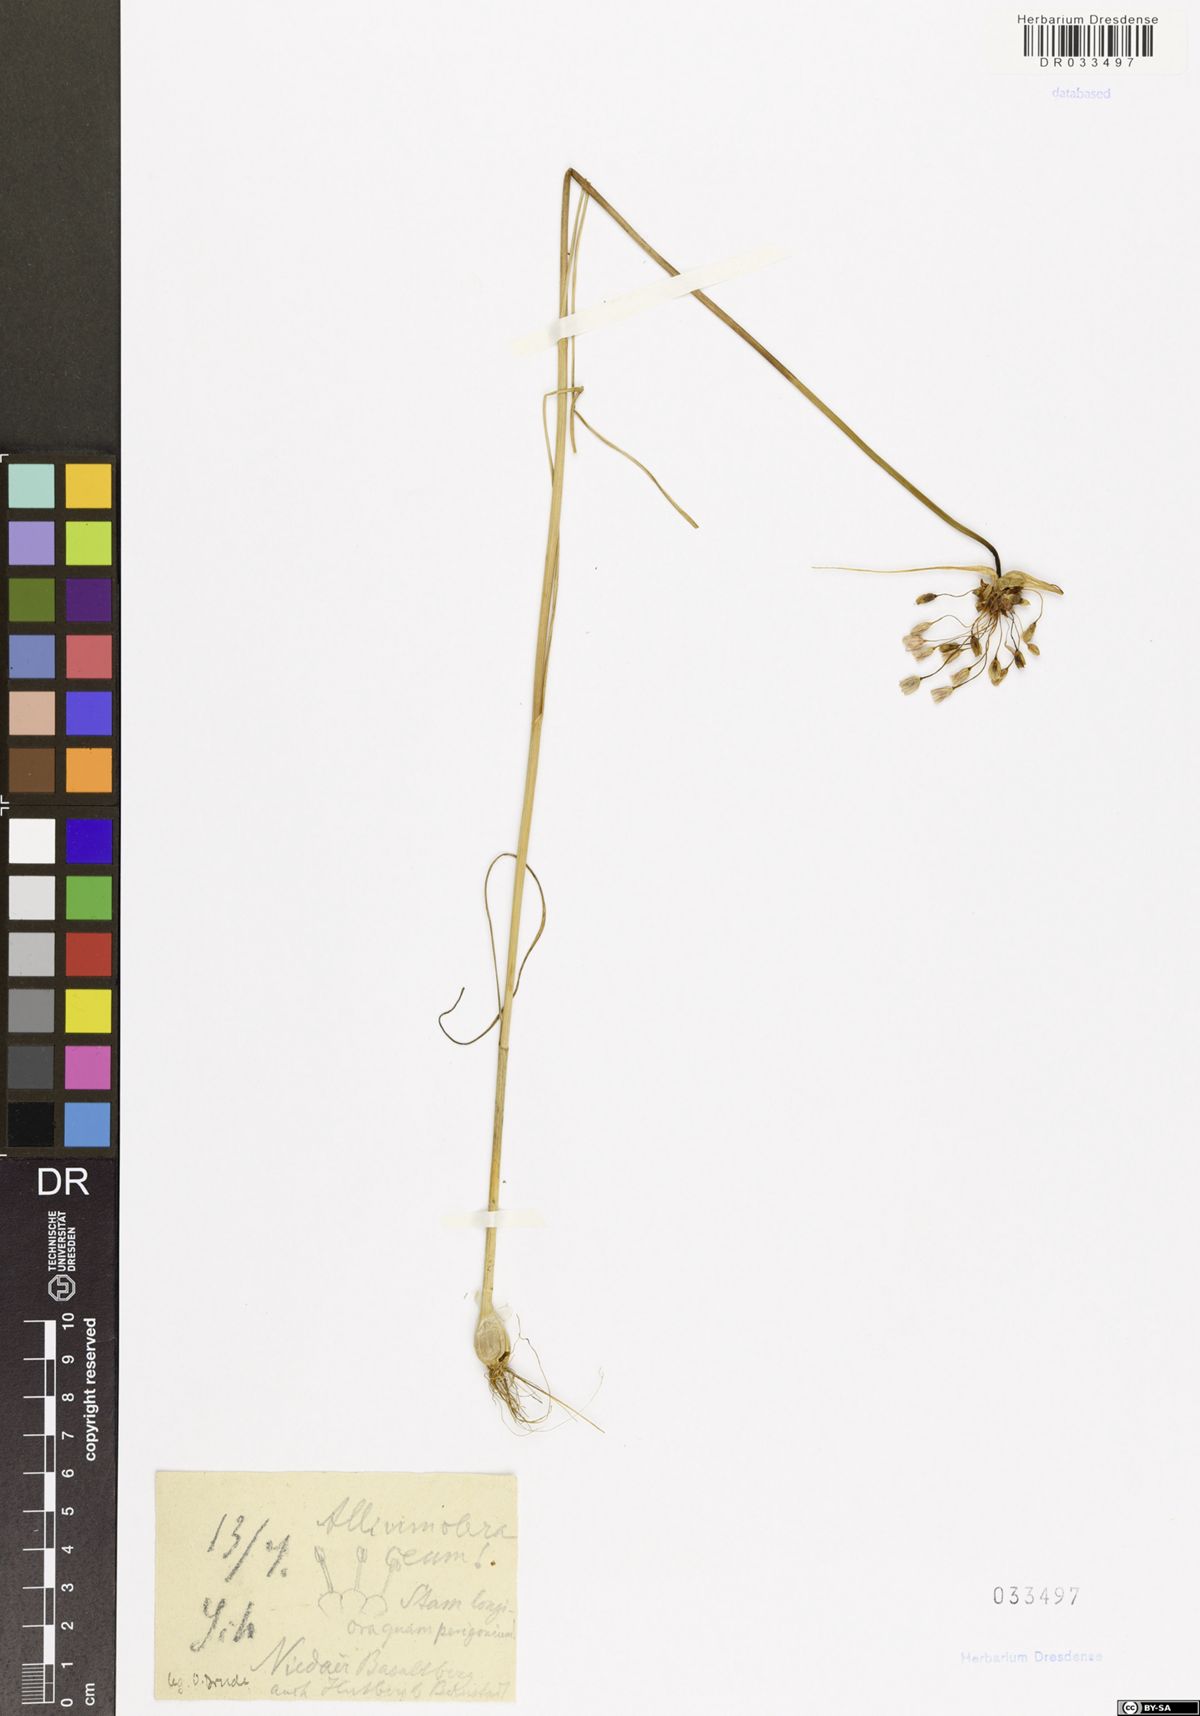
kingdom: Plantae
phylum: Tracheophyta
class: Liliopsida
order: Asparagales
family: Amaryllidaceae
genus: Allium
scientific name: Allium oleraceum
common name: Field garlic
